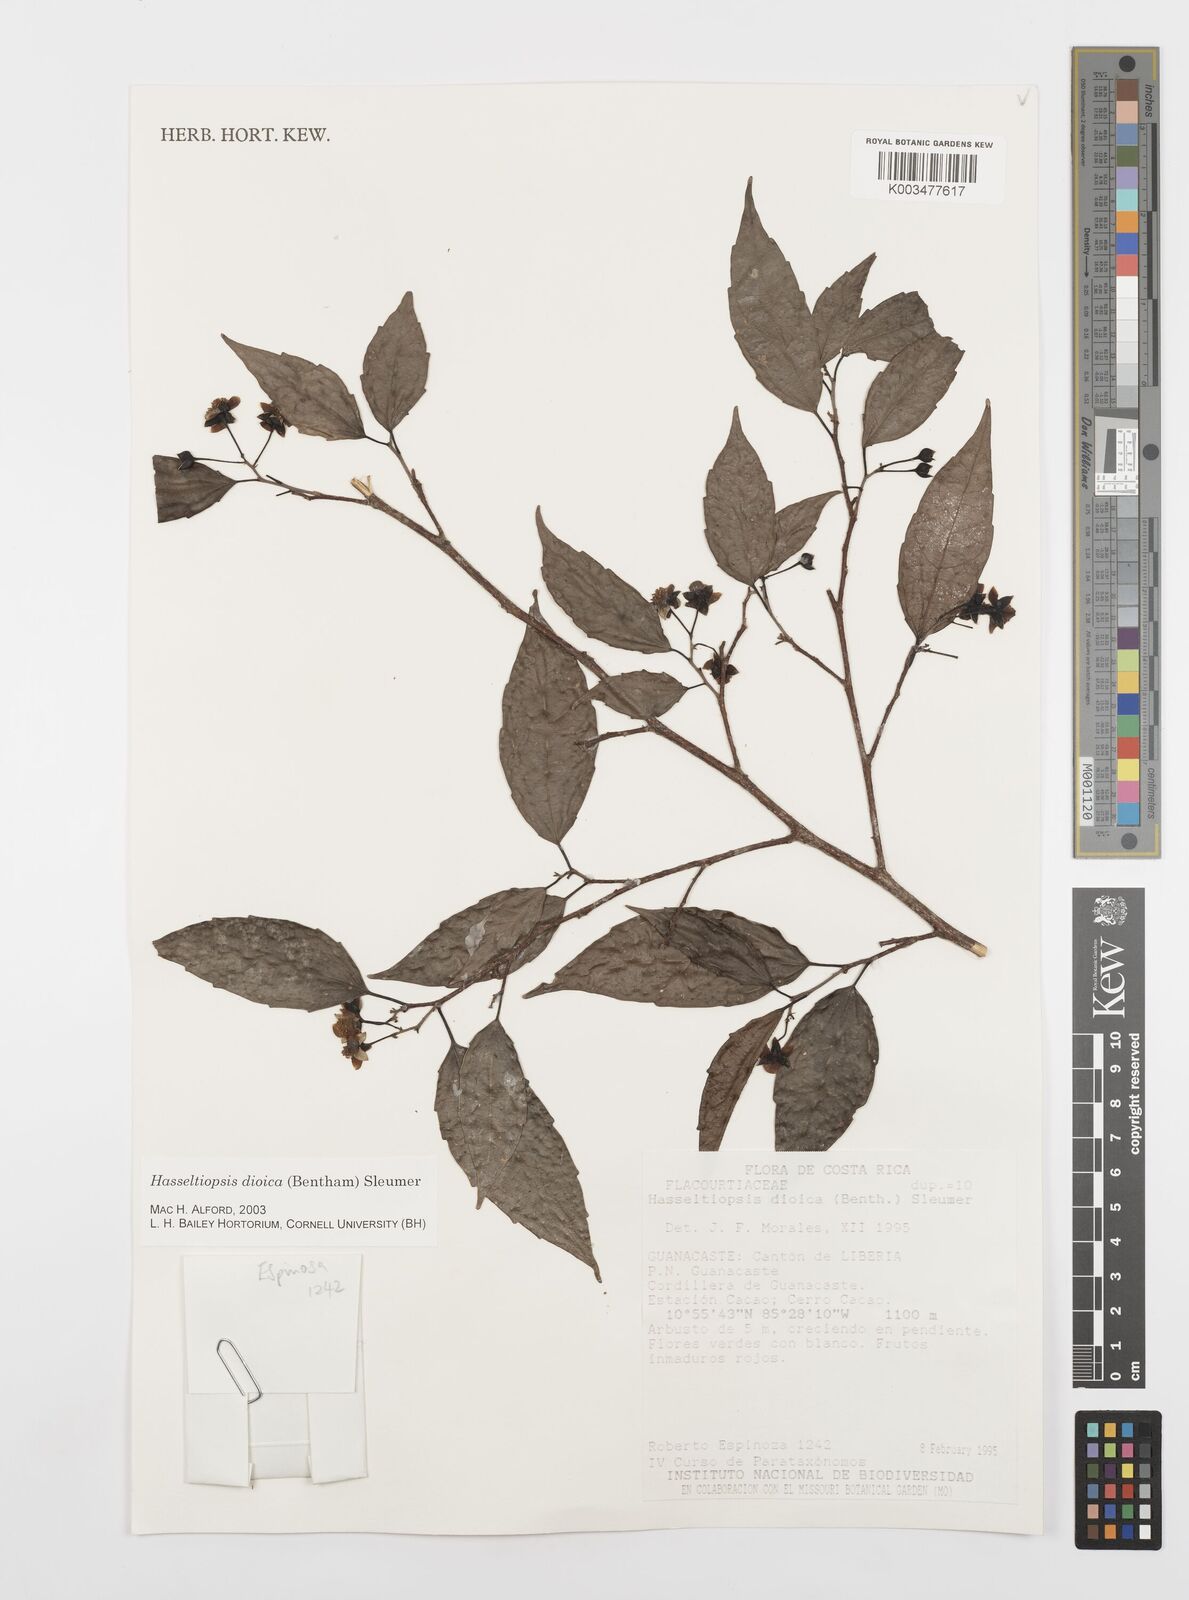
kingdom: Plantae
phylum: Tracheophyta
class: Magnoliopsida
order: Malpighiales
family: Salicaceae
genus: Hasseltiopsis
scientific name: Hasseltiopsis dioica
